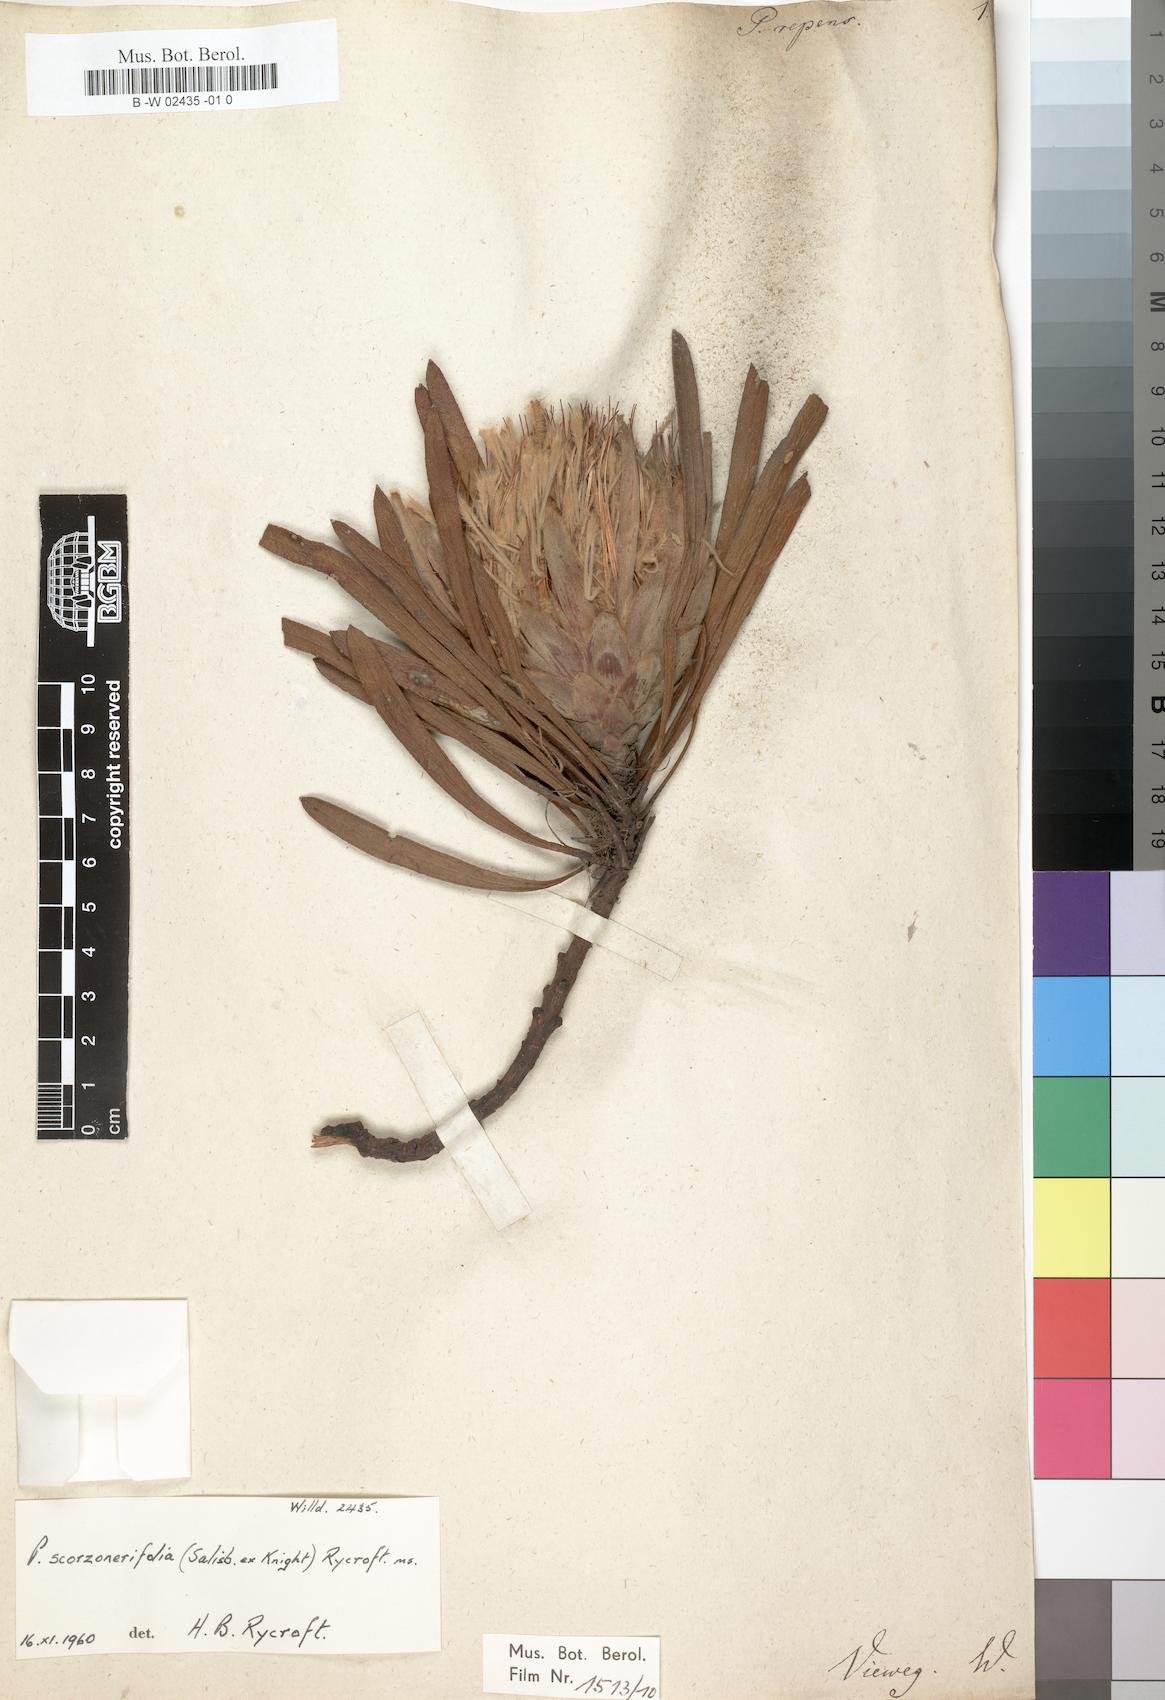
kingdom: Plantae
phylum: Tracheophyta
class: Magnoliopsida
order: Proteales
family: Proteaceae
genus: Protea
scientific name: Protea repens
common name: Sugarbush
